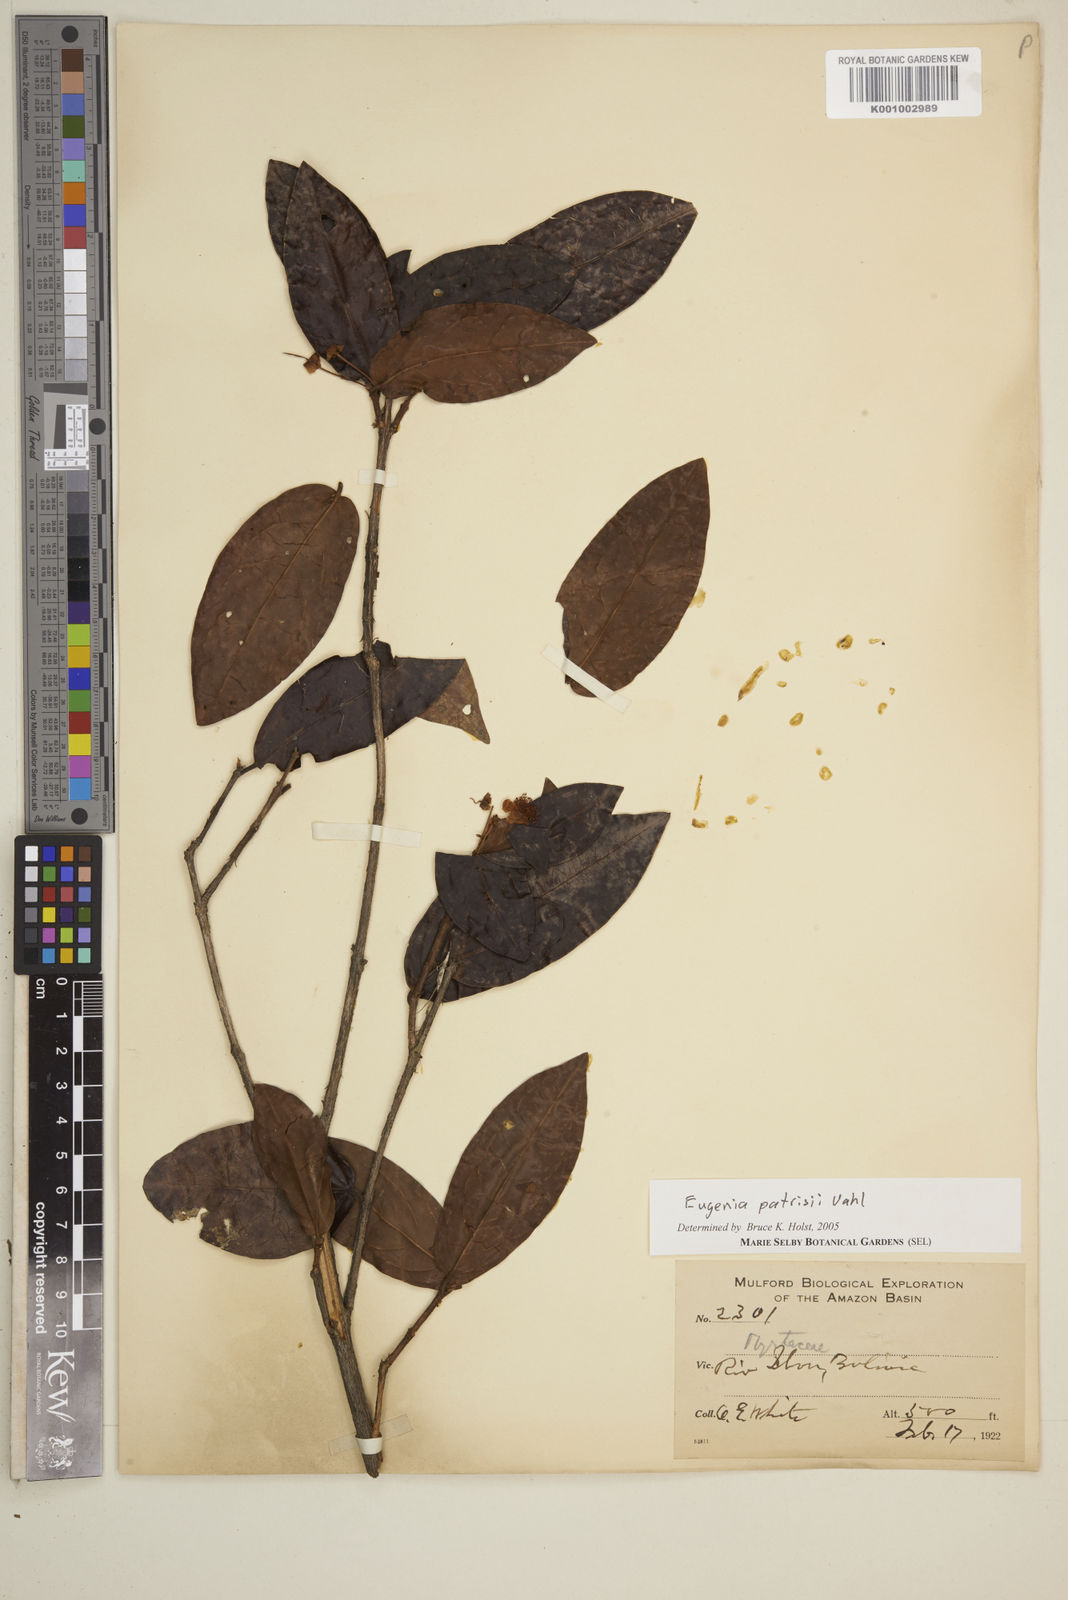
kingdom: Plantae
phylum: Tracheophyta
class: Magnoliopsida
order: Myrtales
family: Myrtaceae
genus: Eugenia
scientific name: Eugenia patrisii
